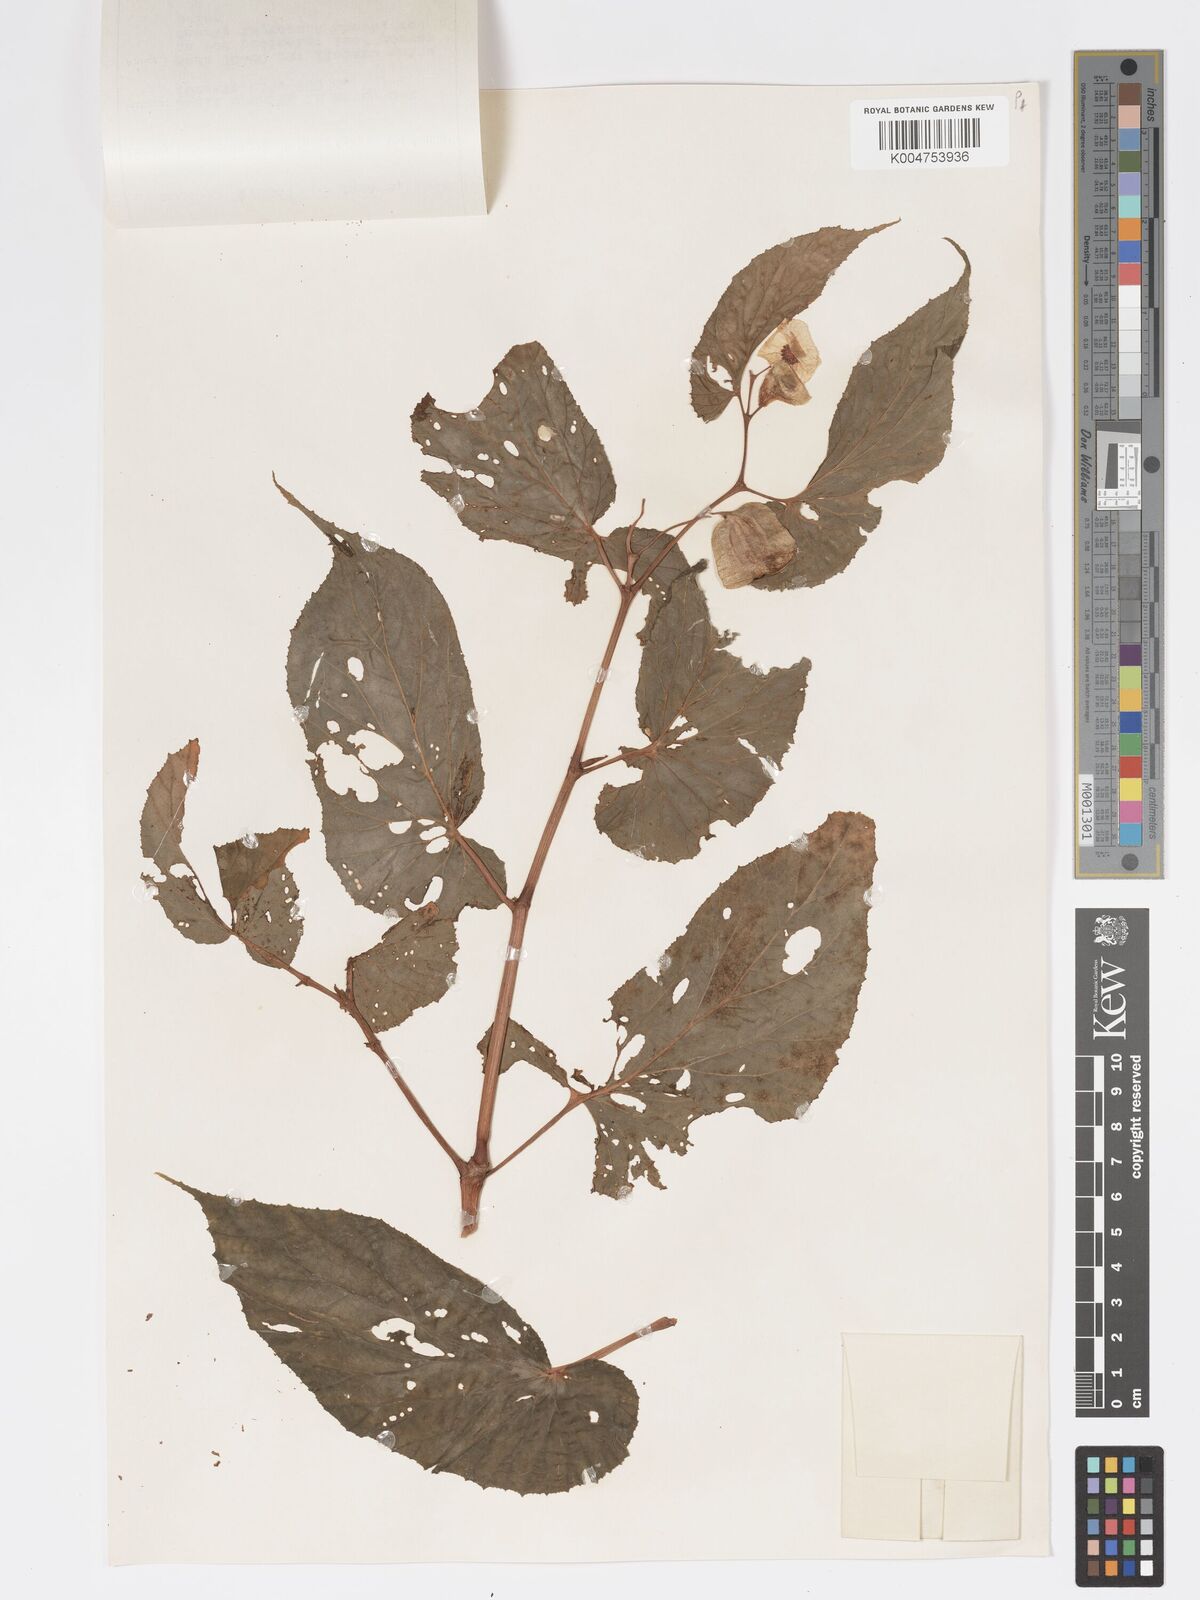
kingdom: Plantae
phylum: Tracheophyta
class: Magnoliopsida
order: Cucurbitales
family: Begoniaceae
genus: Begonia
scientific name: Begonia augustae
